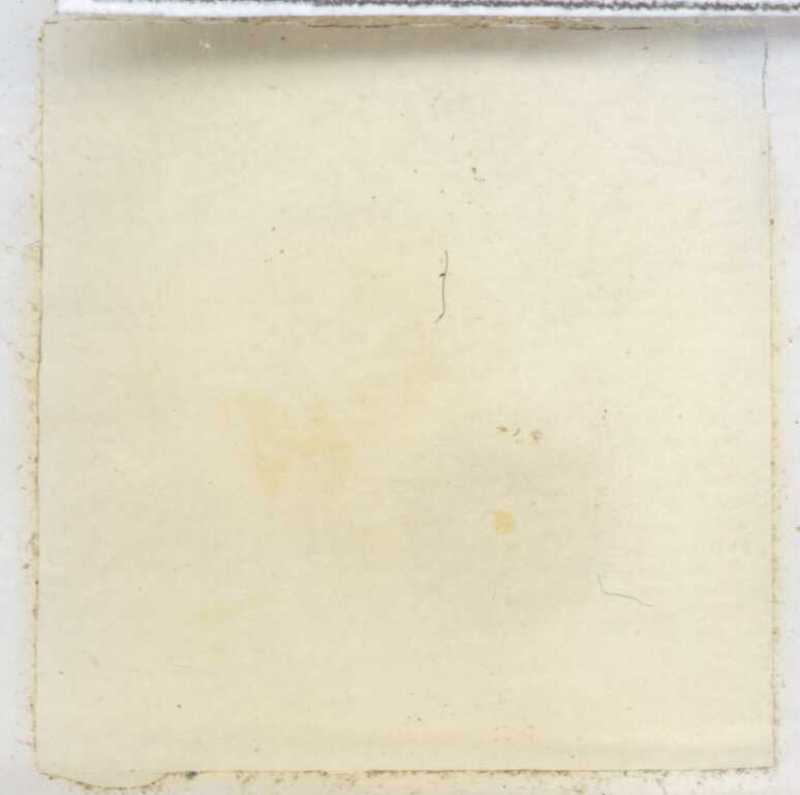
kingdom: Animalia
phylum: Arthropoda
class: Diplopoda
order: Polyxenida
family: Polyxenidae
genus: Mauritixenus
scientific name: Mauritixenus gracilicornis
